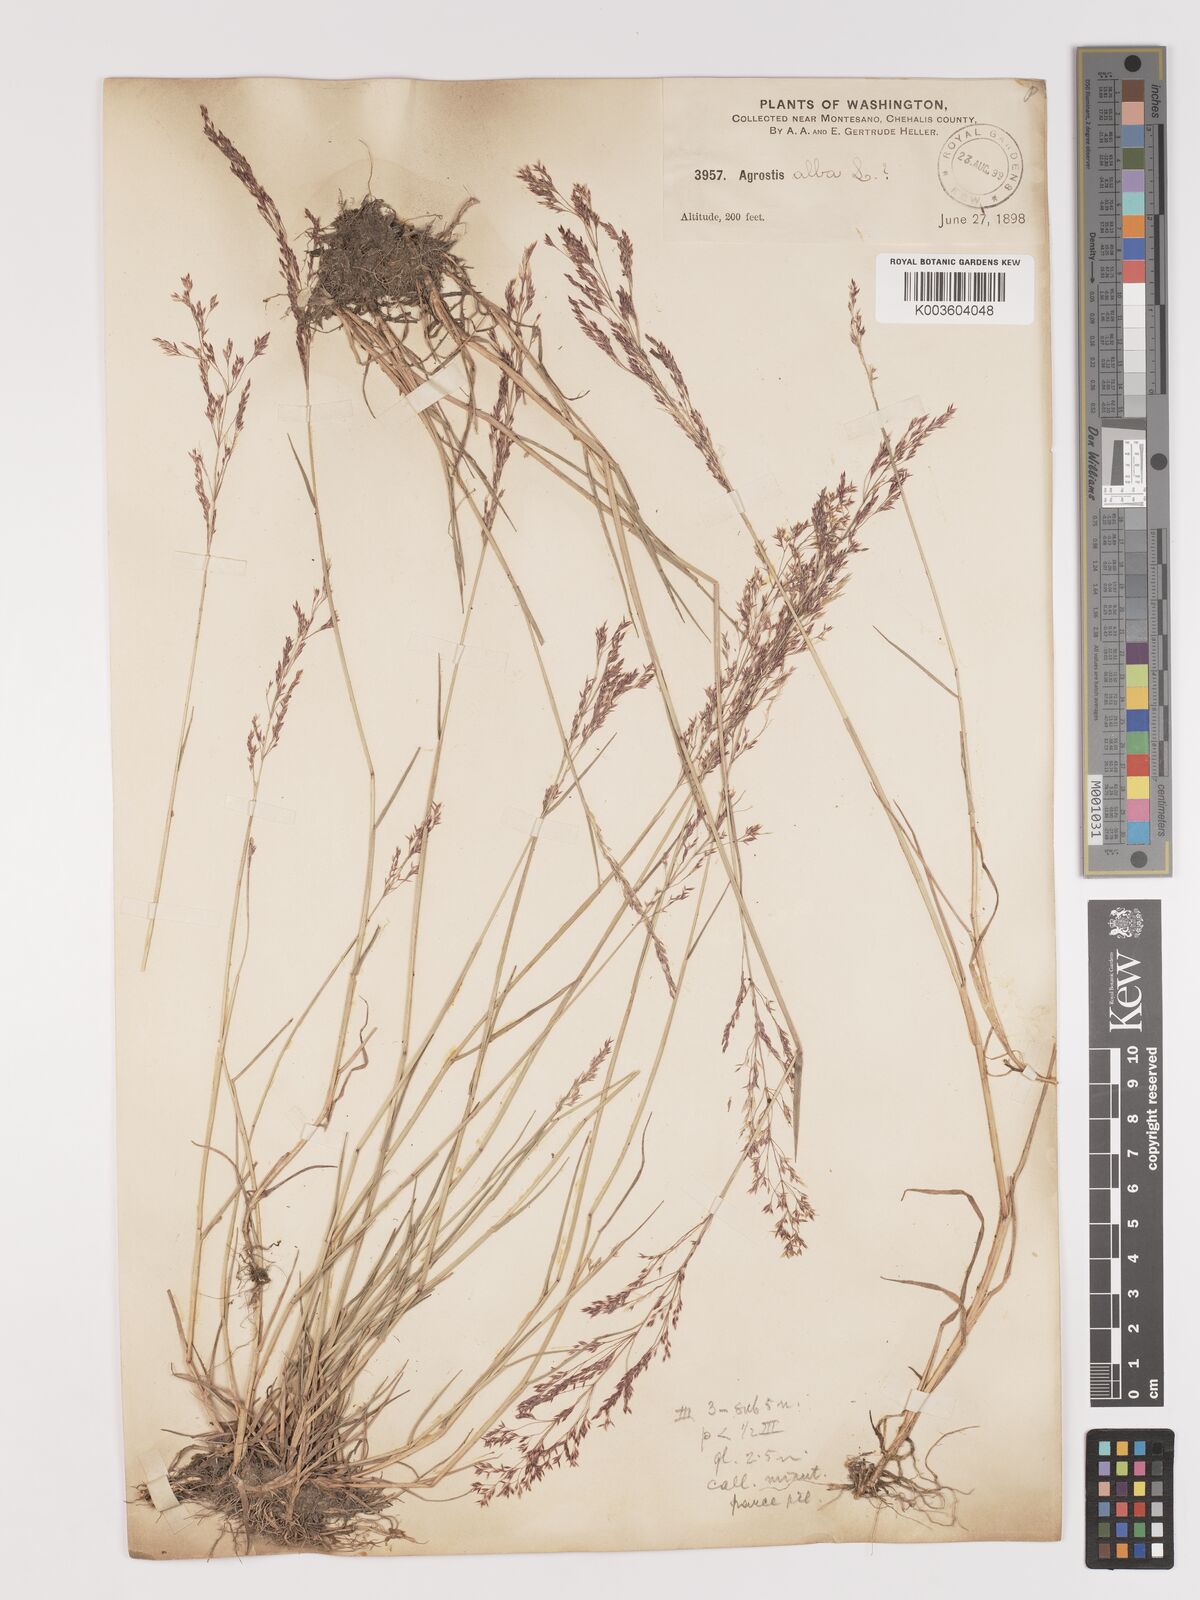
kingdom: Plantae
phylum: Tracheophyta
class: Liliopsida
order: Poales
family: Poaceae
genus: Agrostis
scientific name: Agrostis gigantea
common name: Black bent
